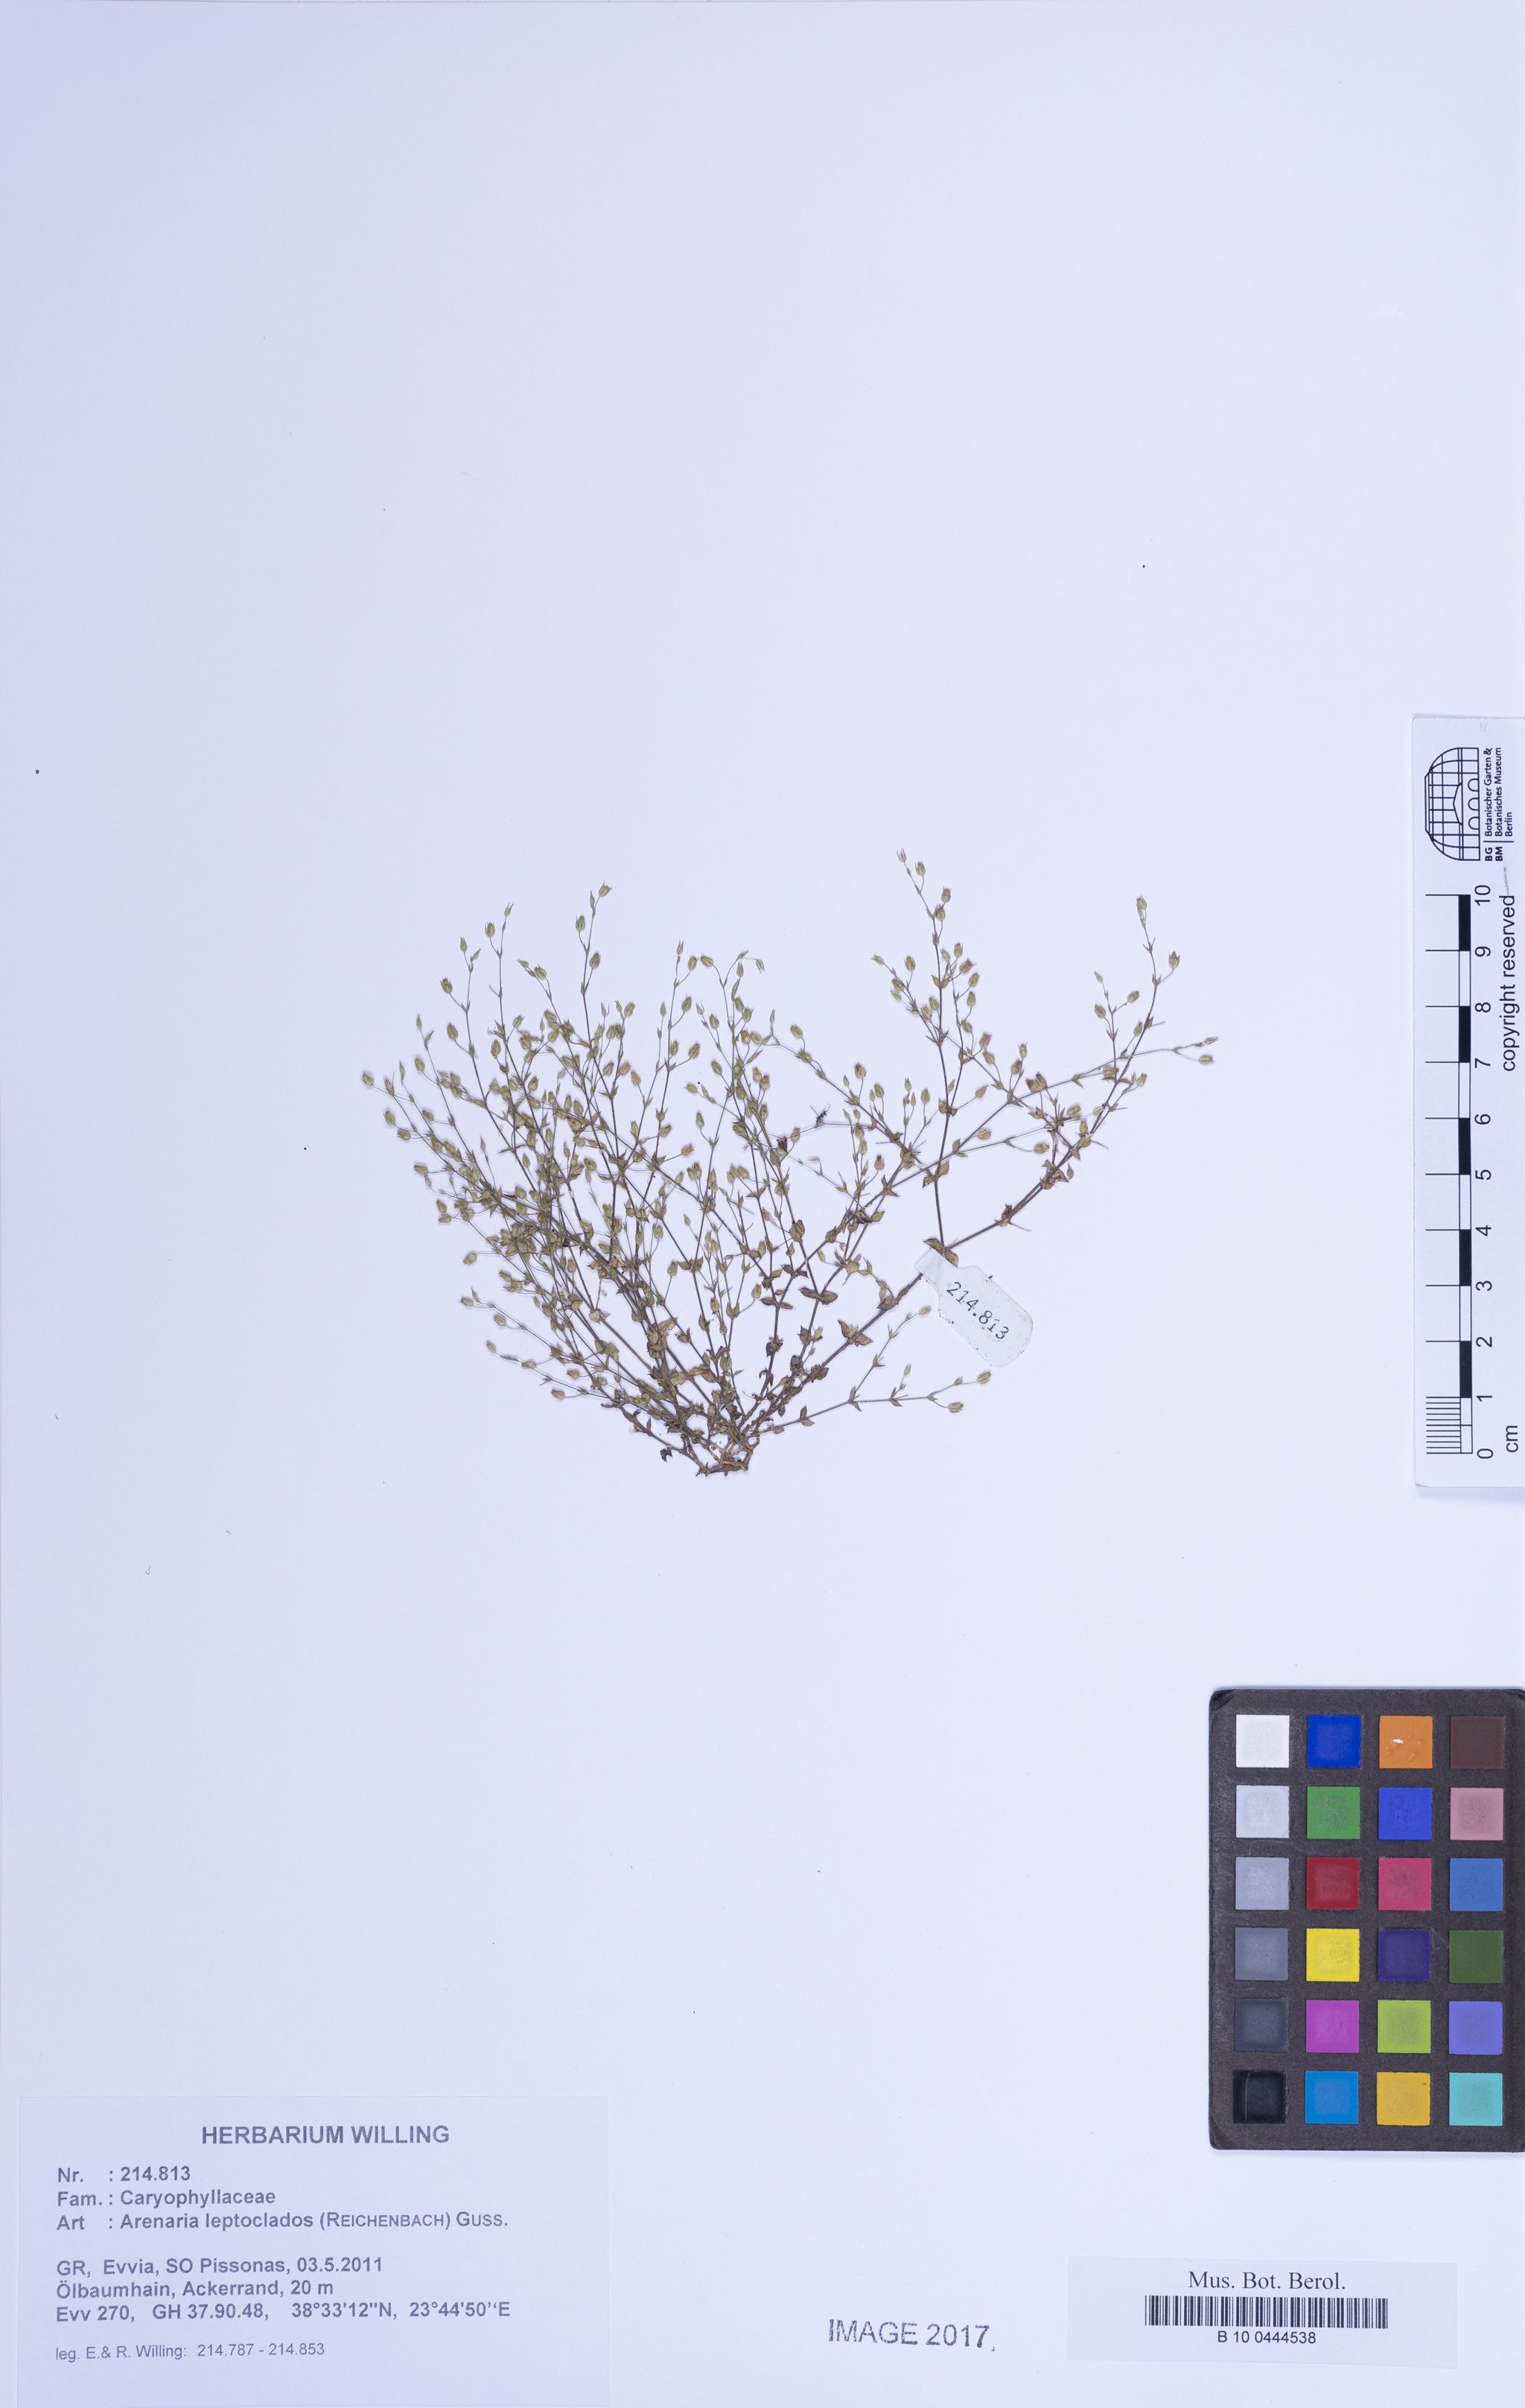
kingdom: Plantae
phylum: Tracheophyta
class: Magnoliopsida
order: Caryophyllales
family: Caryophyllaceae
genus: Arenaria
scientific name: Arenaria leptoclados
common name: Thyme-leaved sandwort
